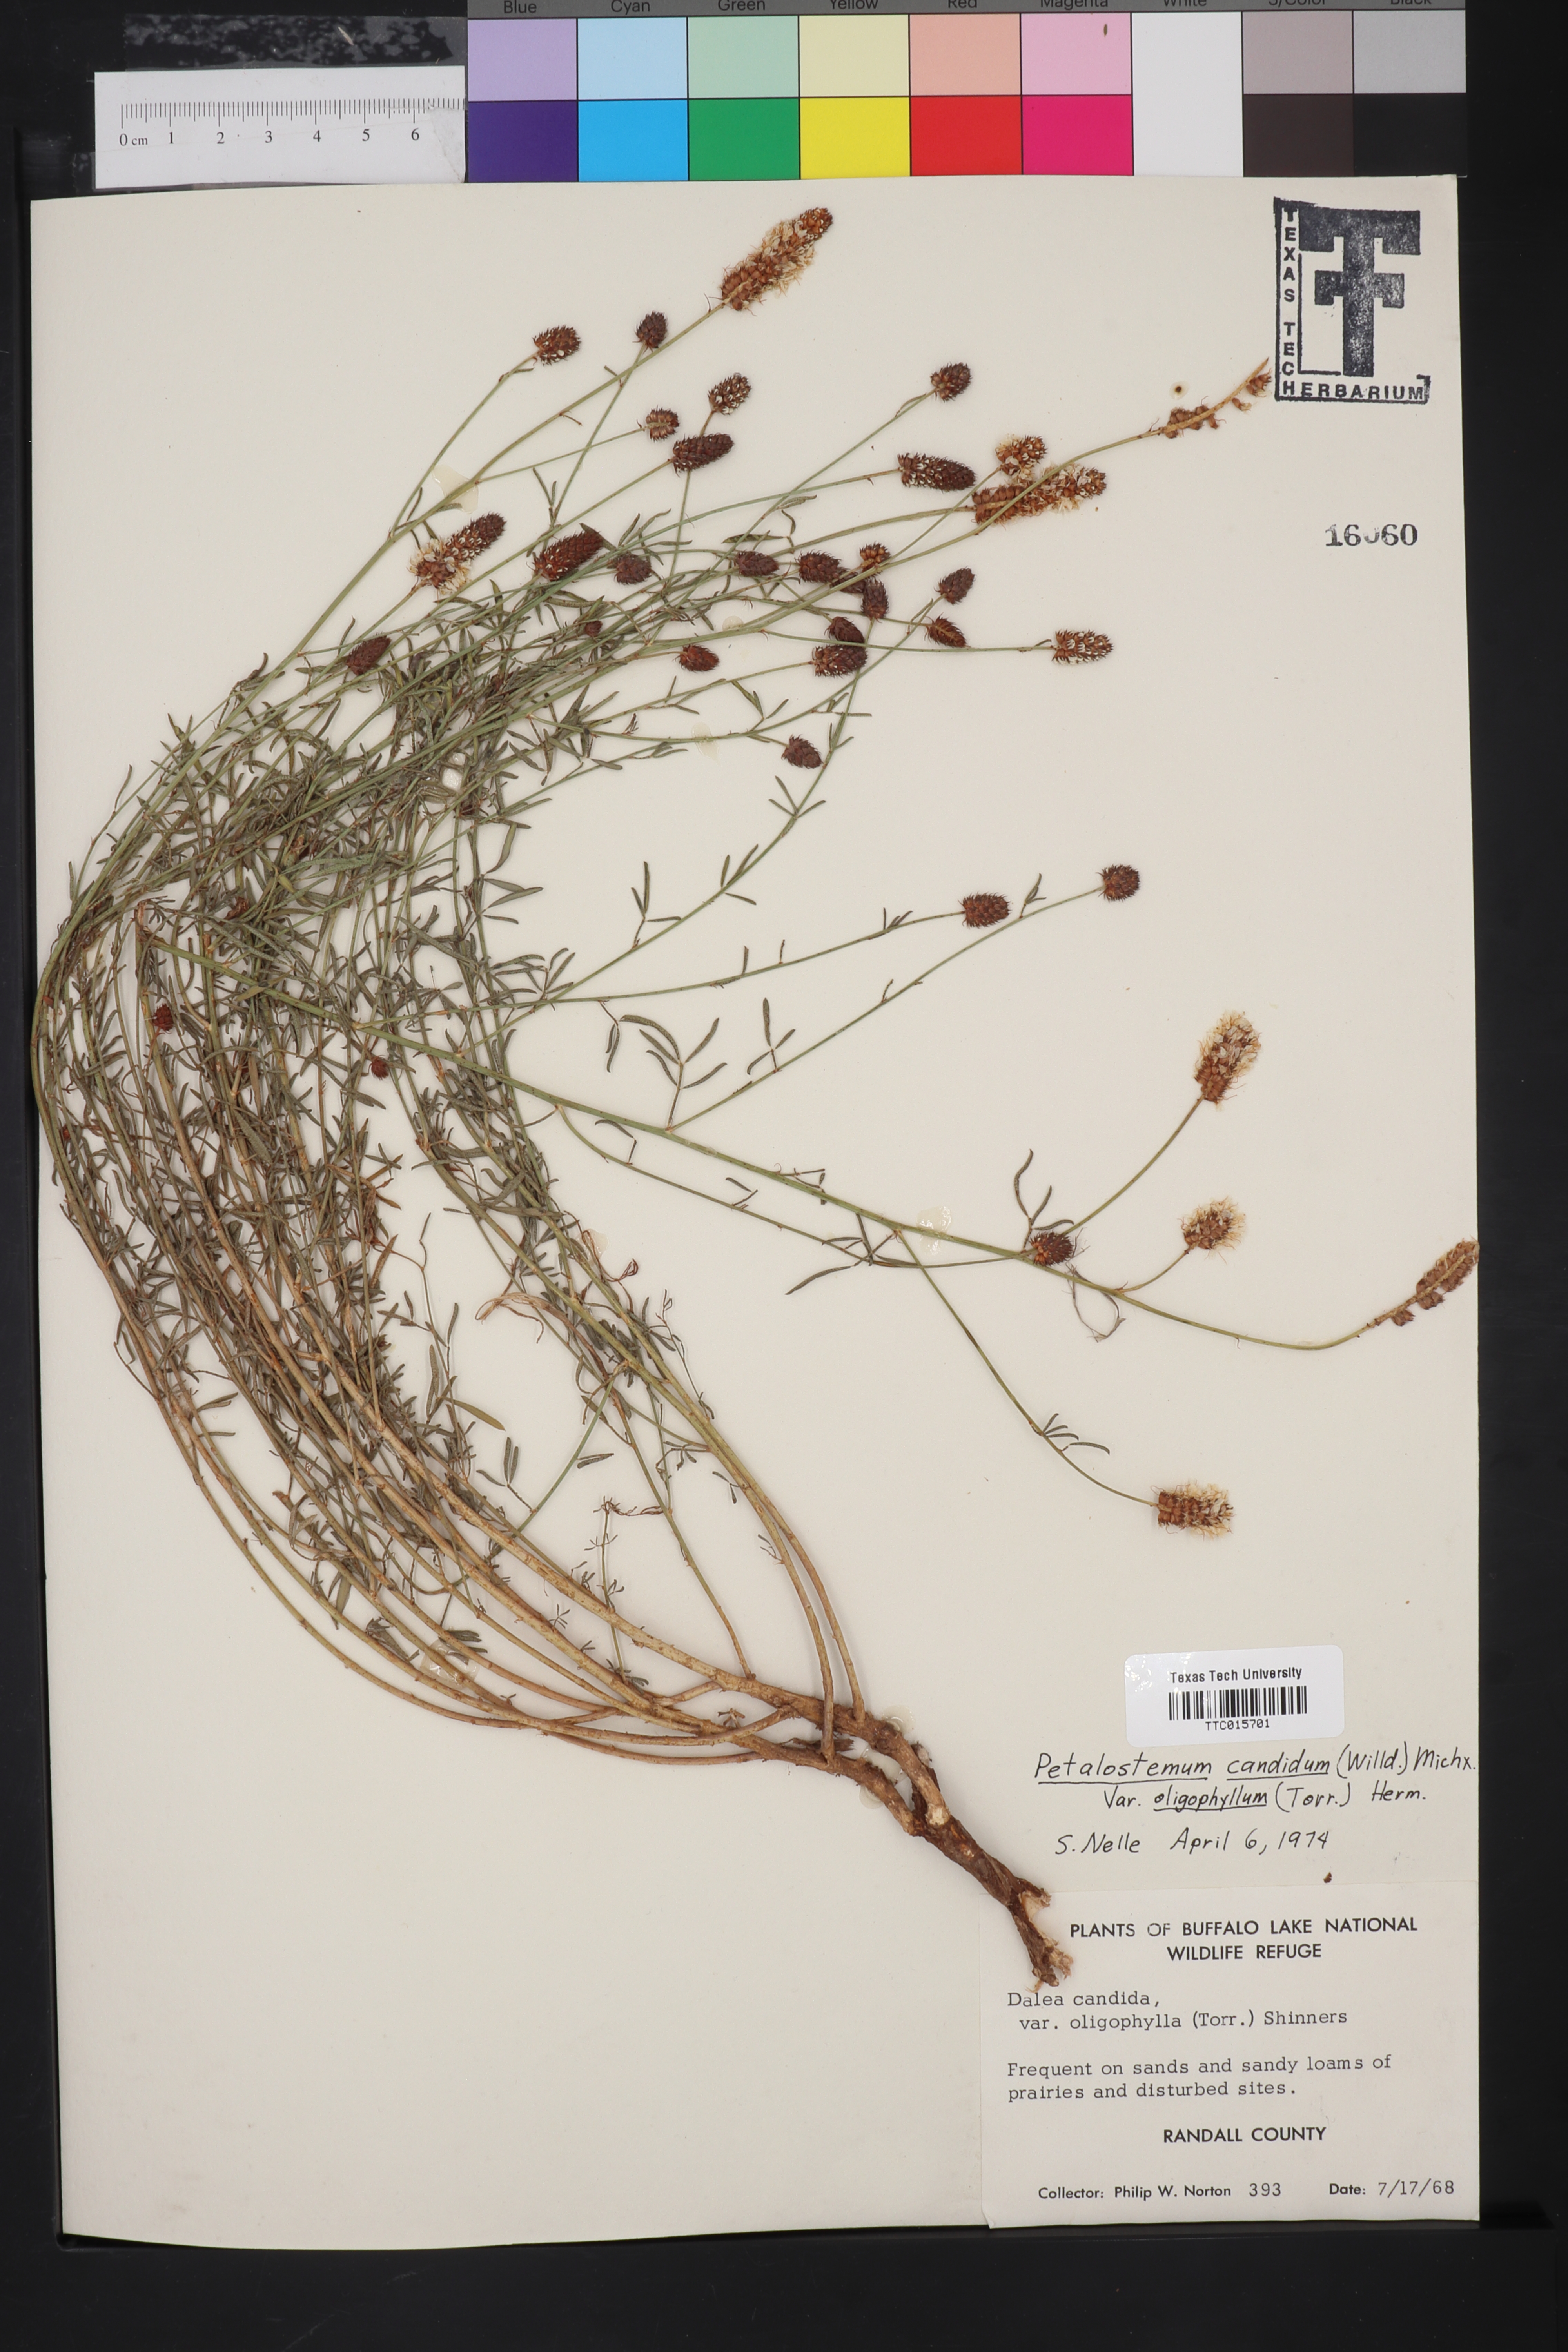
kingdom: Plantae
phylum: Tracheophyta
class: Magnoliopsida
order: Fabales
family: Fabaceae
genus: Petalostemum
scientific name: Petalostemum
